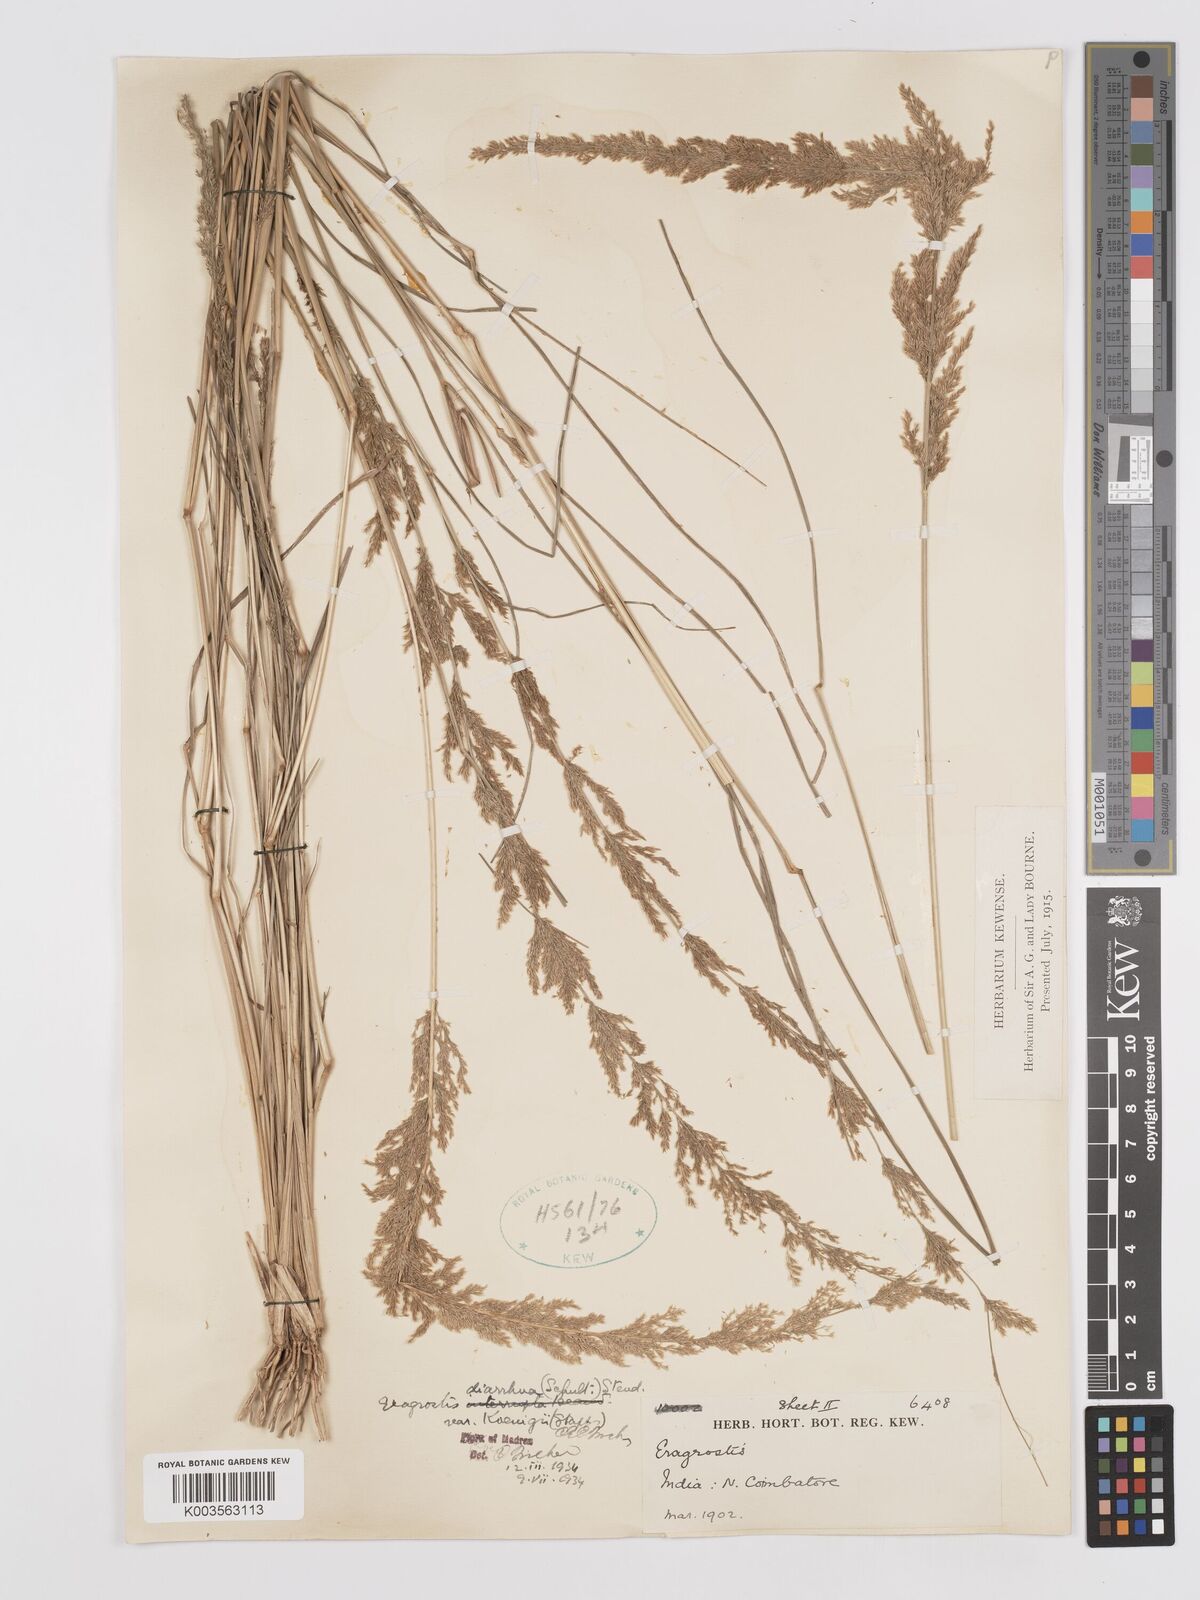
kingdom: Plantae
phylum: Tracheophyta
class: Liliopsida
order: Poales
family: Poaceae
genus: Eragrostis
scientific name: Eragrostis japonica
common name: Pond lovegrass
